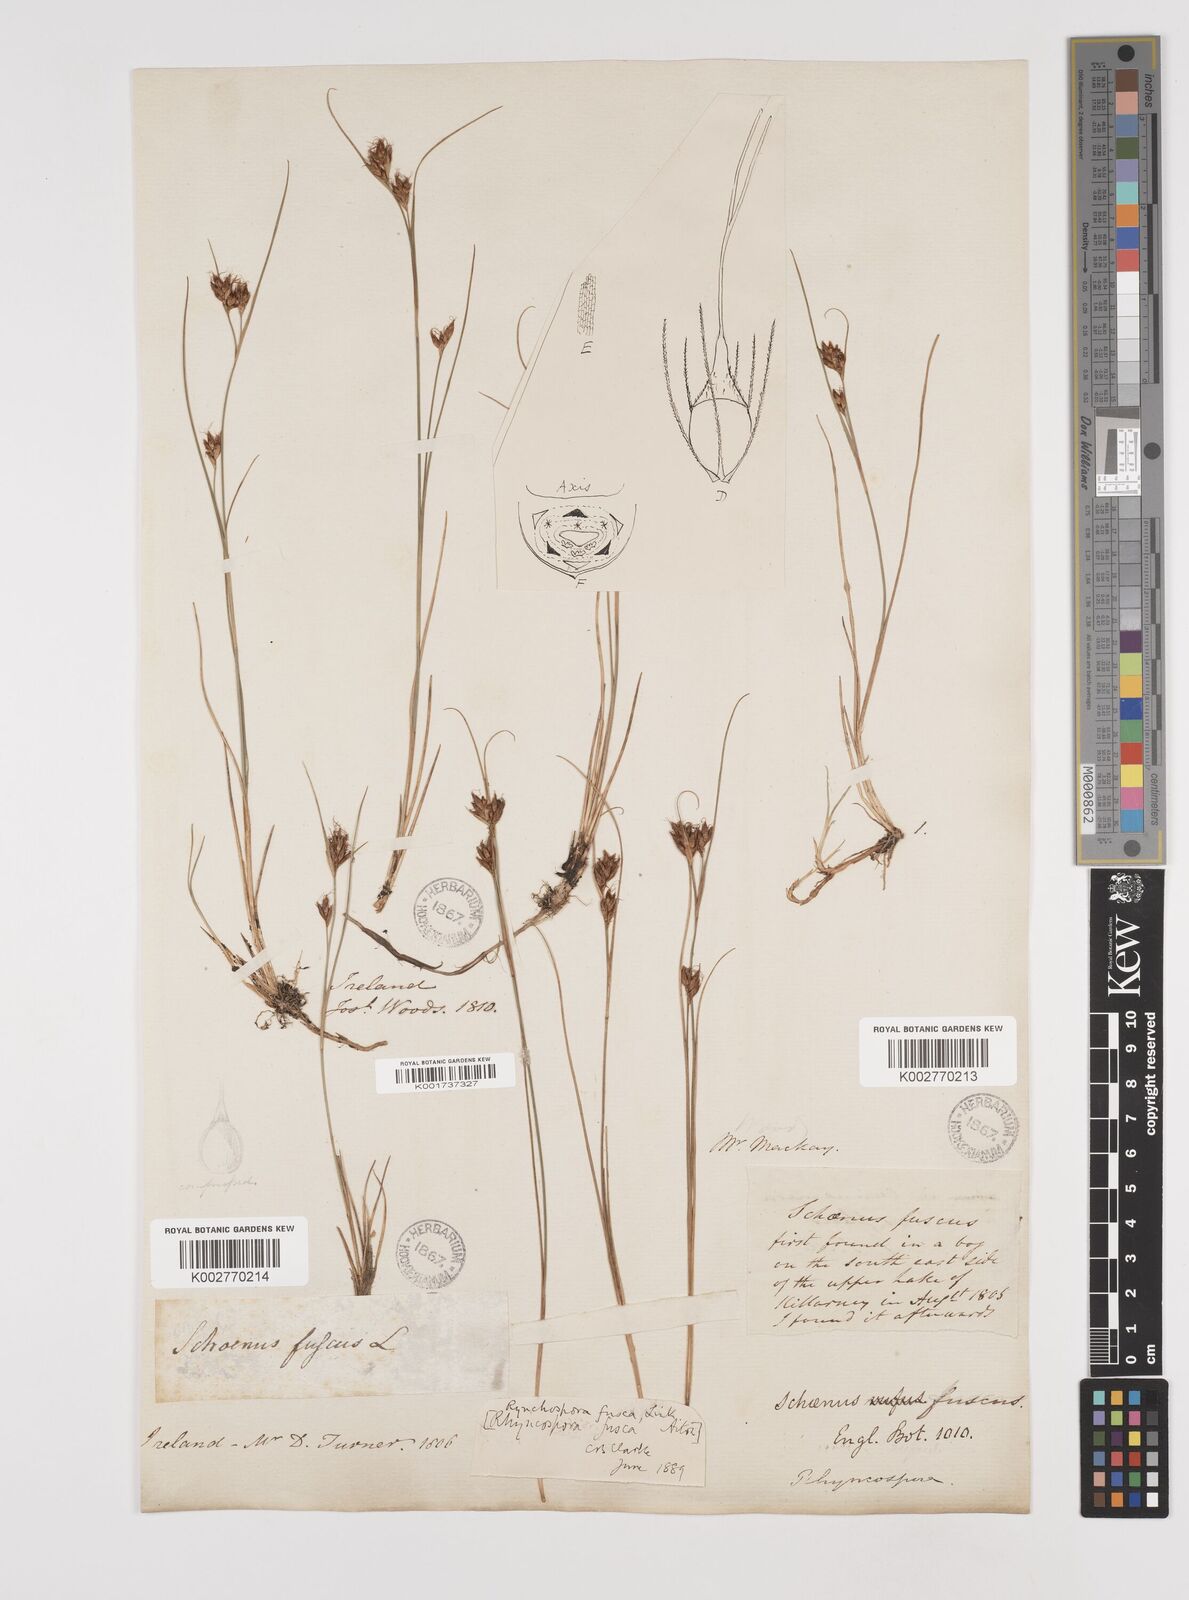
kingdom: Plantae
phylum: Tracheophyta
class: Liliopsida
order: Poales
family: Cyperaceae
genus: Rhynchospora
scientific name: Rhynchospora fusca
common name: Brown beak-sedge
